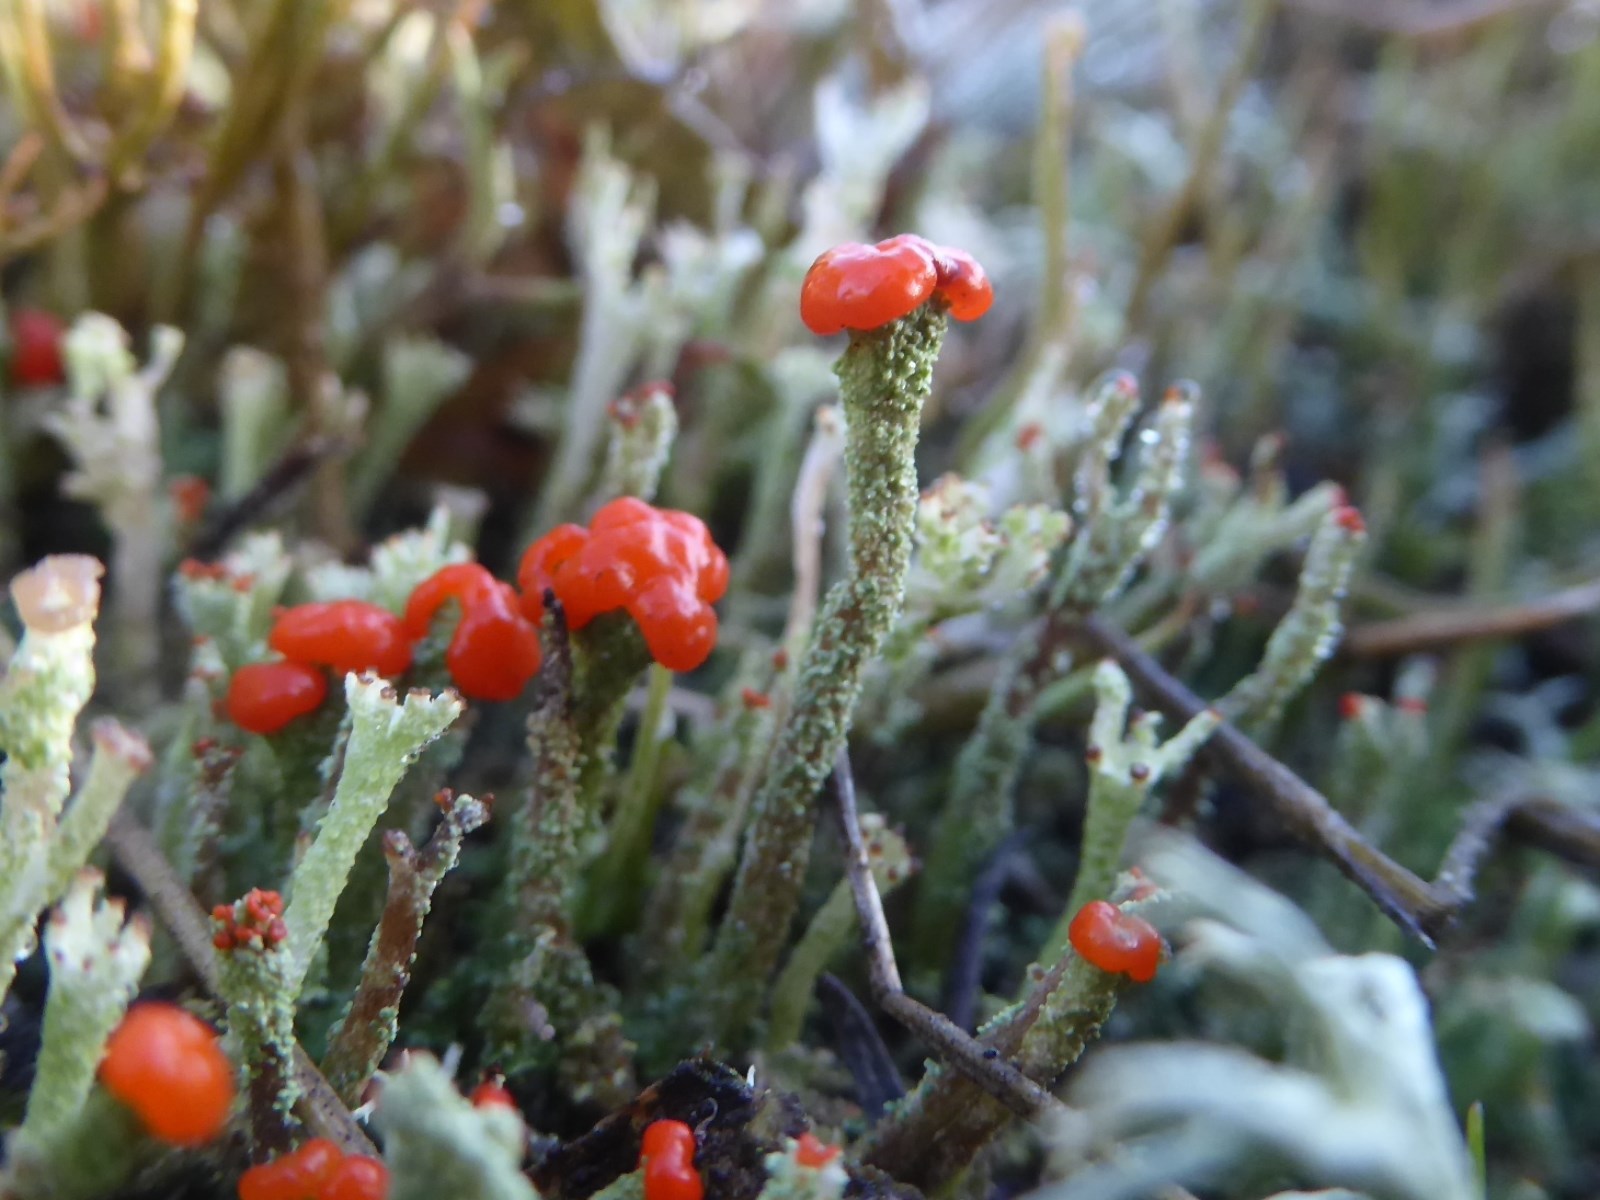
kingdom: Fungi
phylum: Ascomycota
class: Lecanoromycetes
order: Lecanorales
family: Cladoniaceae
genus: Cladonia
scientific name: Cladonia floerkeana
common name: lakrød bægerlav
